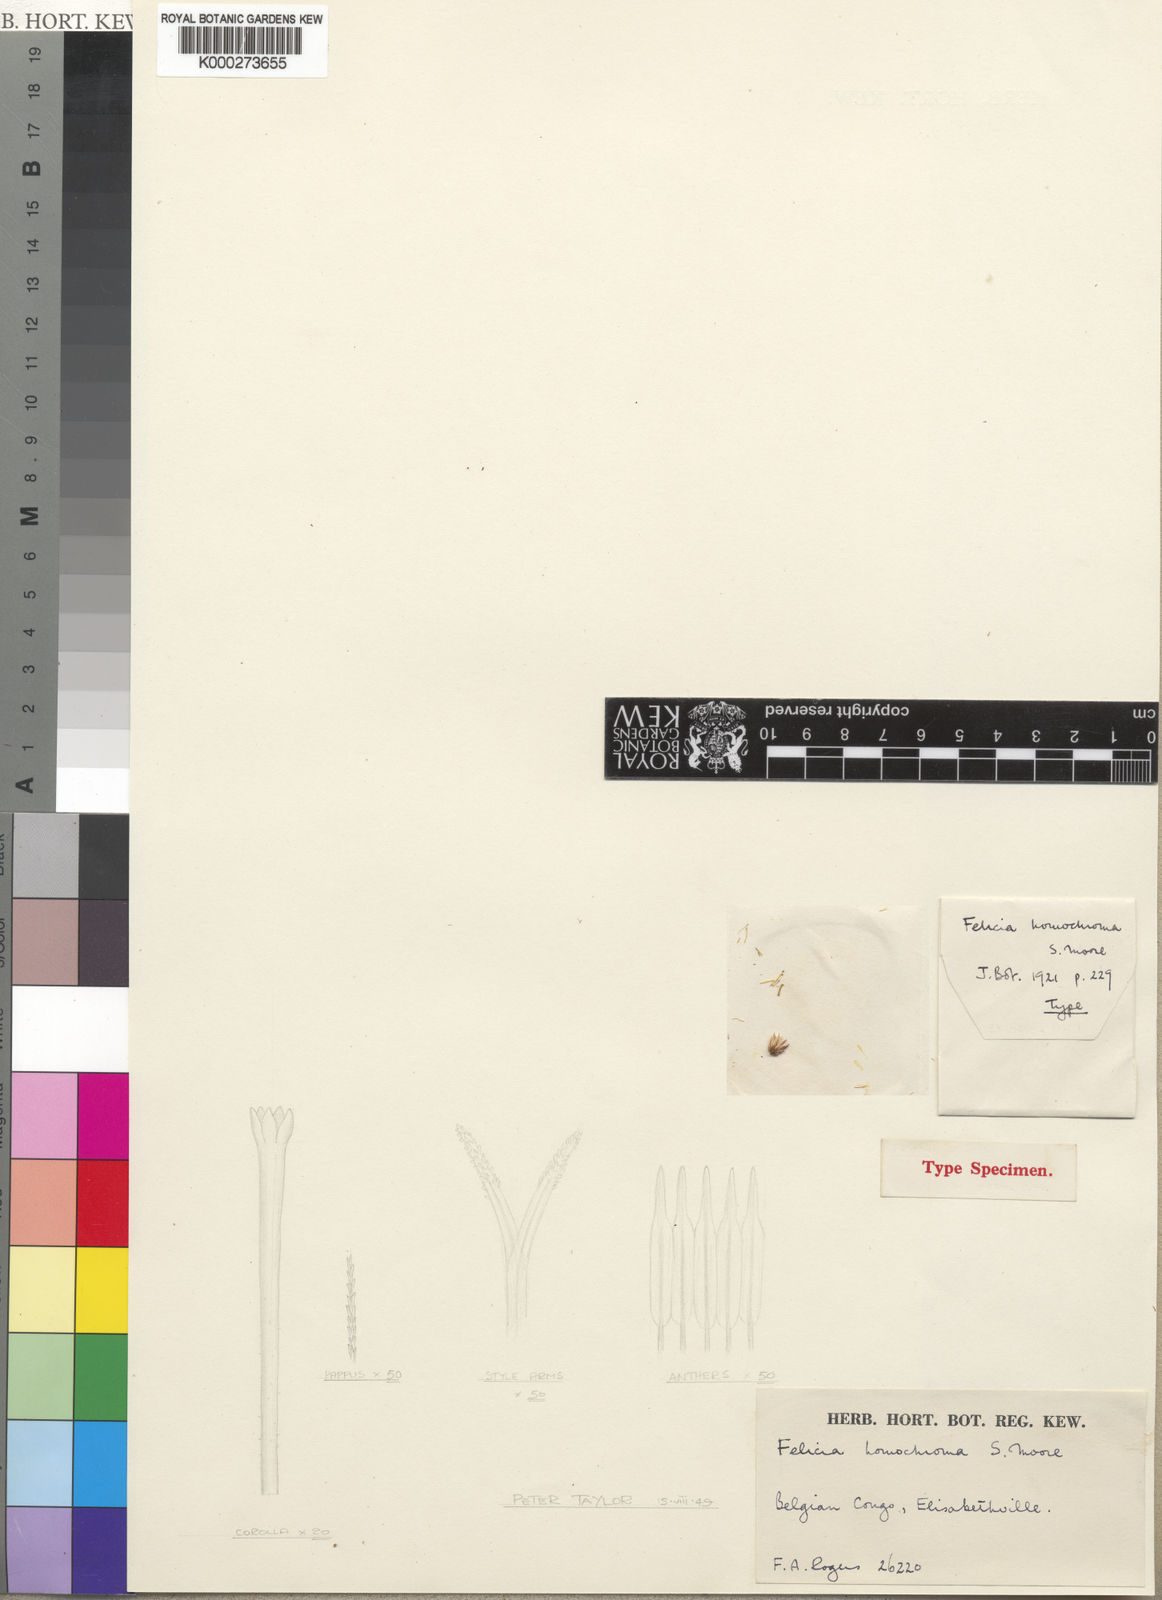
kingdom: Plantae
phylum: Tracheophyta
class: Magnoliopsida
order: Asterales
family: Asteraceae
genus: Felicia
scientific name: Felicia boehmii
